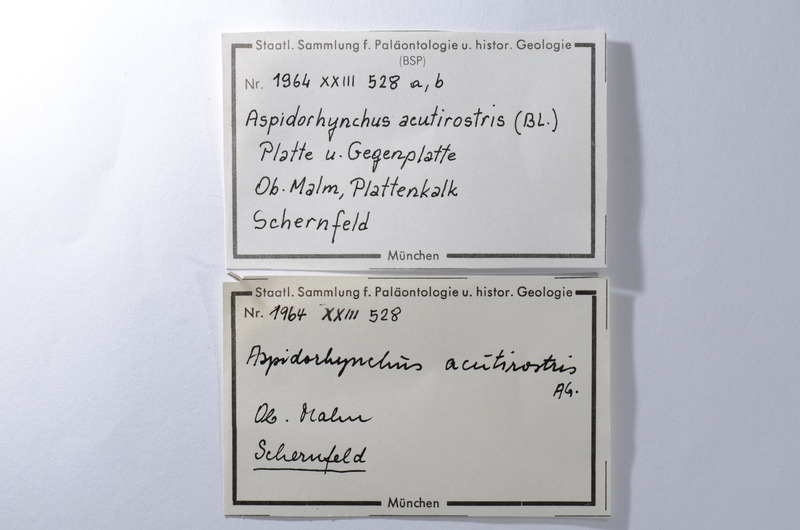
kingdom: Animalia
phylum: Chordata
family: Aspidorhynchidae
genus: Aspidorhynchus
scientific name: Aspidorhynchus acutirostris
